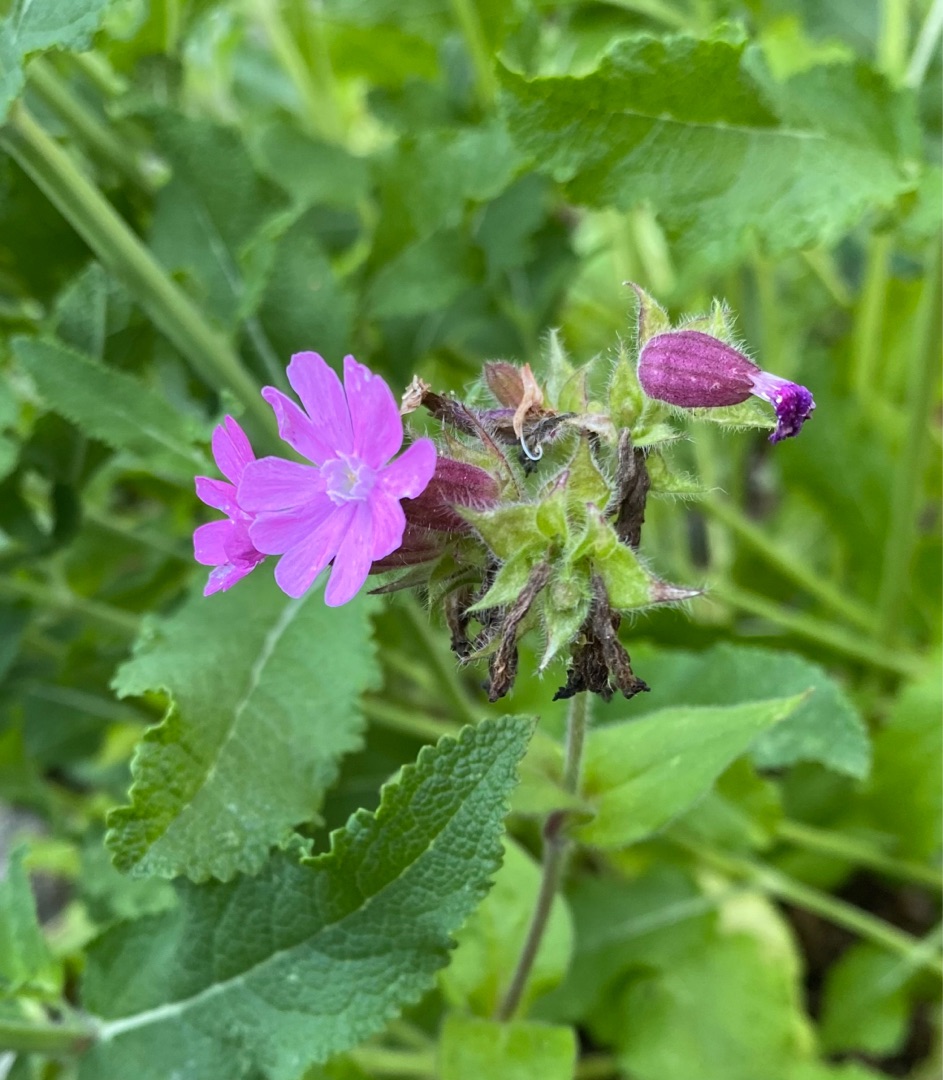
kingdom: Plantae
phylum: Tracheophyta
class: Magnoliopsida
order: Caryophyllales
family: Caryophyllaceae
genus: Silene
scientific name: Silene dioica
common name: Dagpragtstjerne
